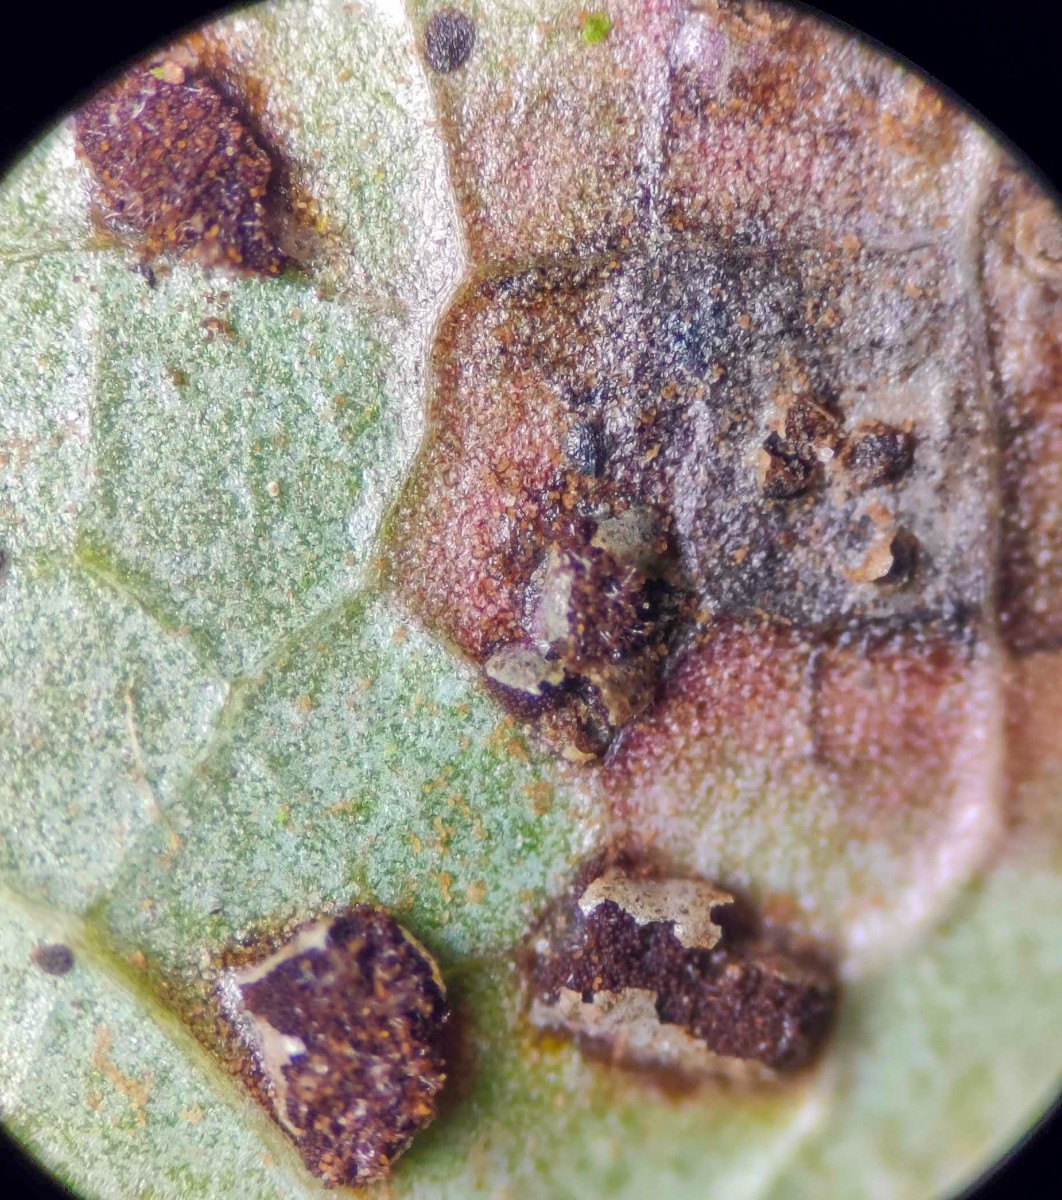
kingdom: Fungi
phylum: Basidiomycota
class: Pucciniomycetes
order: Pucciniales
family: Pucciniaceae
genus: Cumminsiella
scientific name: Cumminsiella mirabilissima
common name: mahonierust
